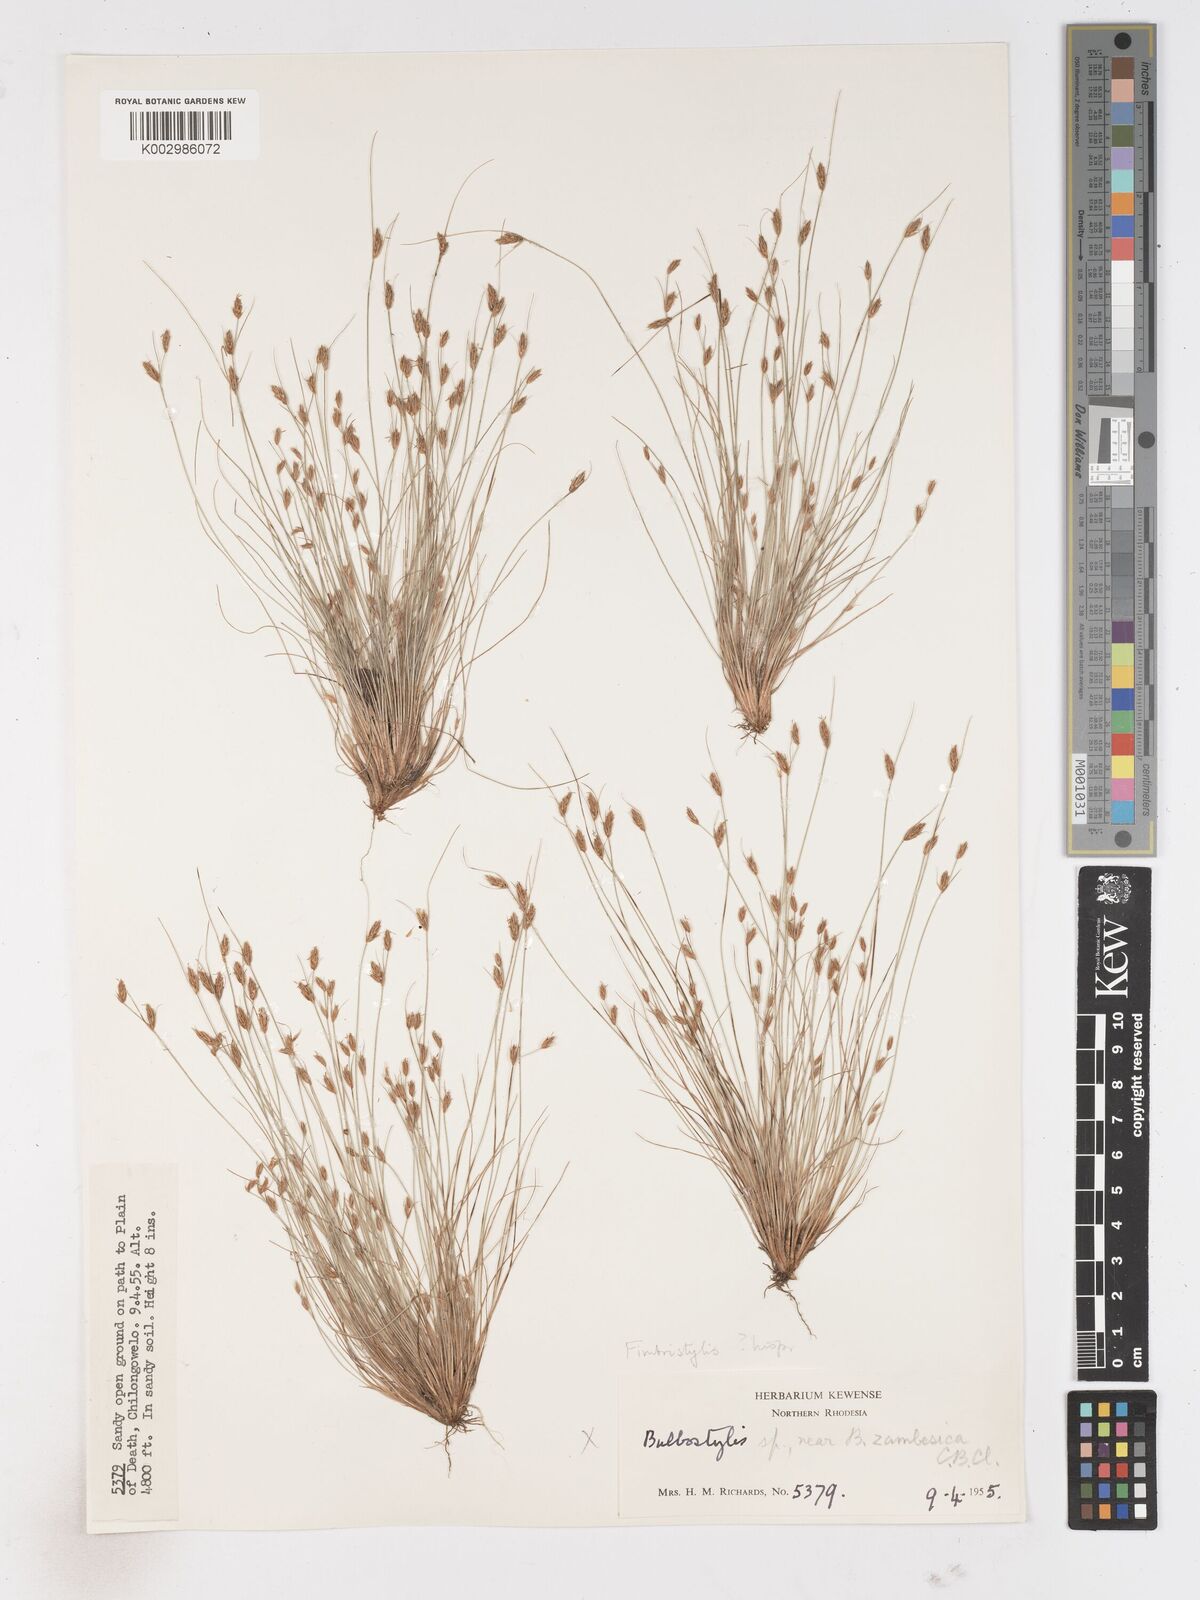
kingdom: Plantae
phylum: Tracheophyta
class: Liliopsida
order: Poales
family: Cyperaceae
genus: Fimbristylis
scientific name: Fimbristylis
